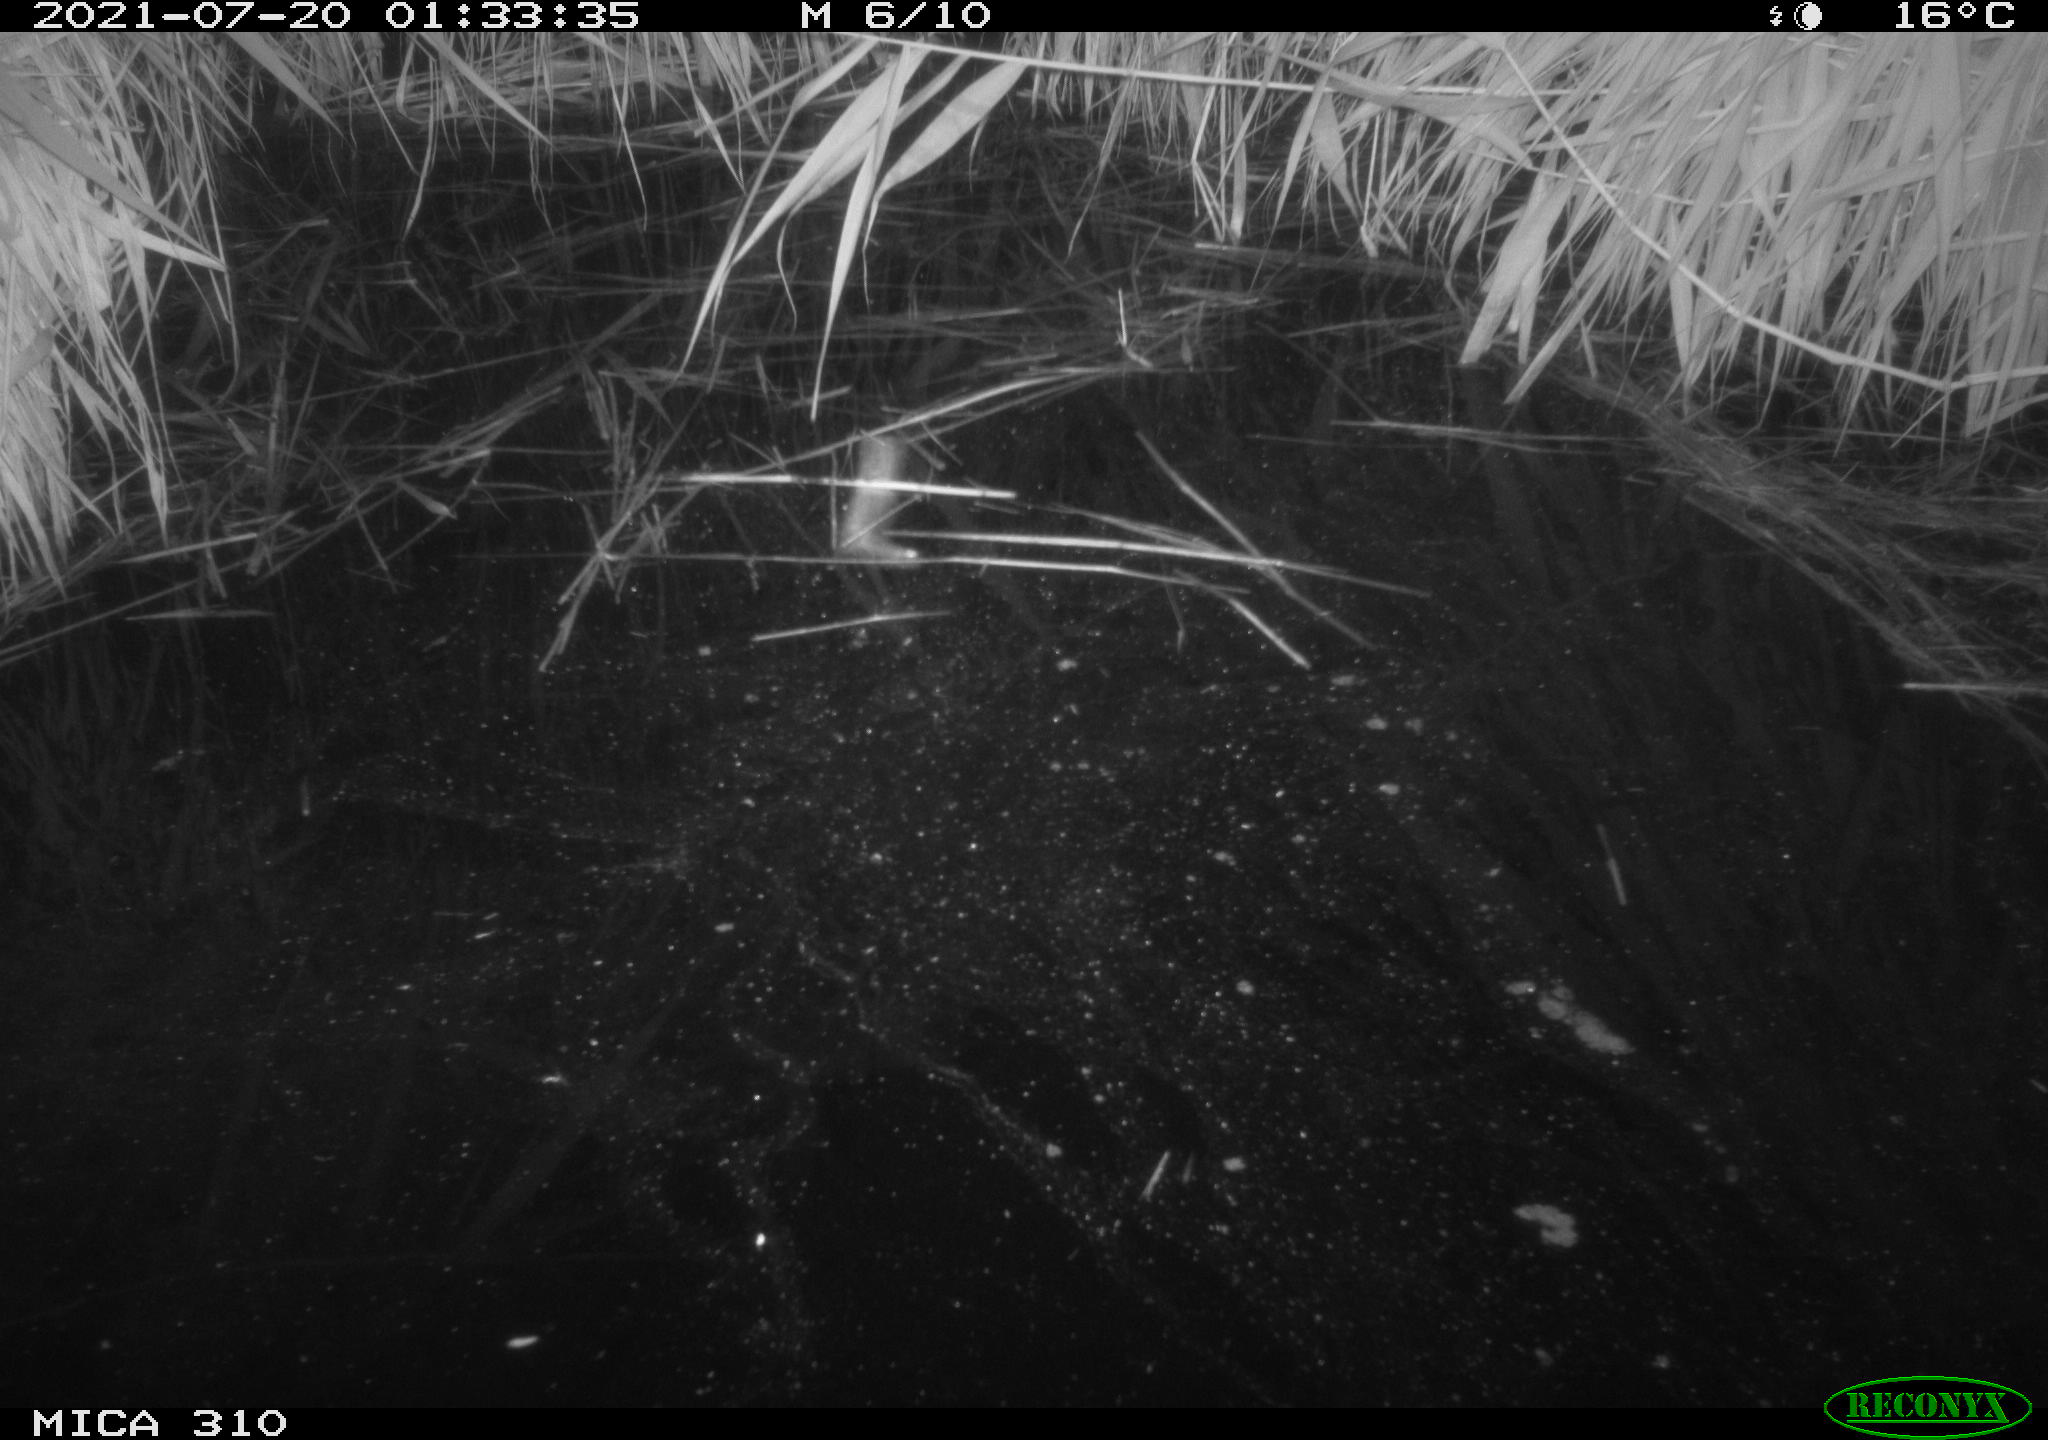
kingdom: Animalia
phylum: Chordata
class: Mammalia
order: Chiroptera
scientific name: Chiroptera
